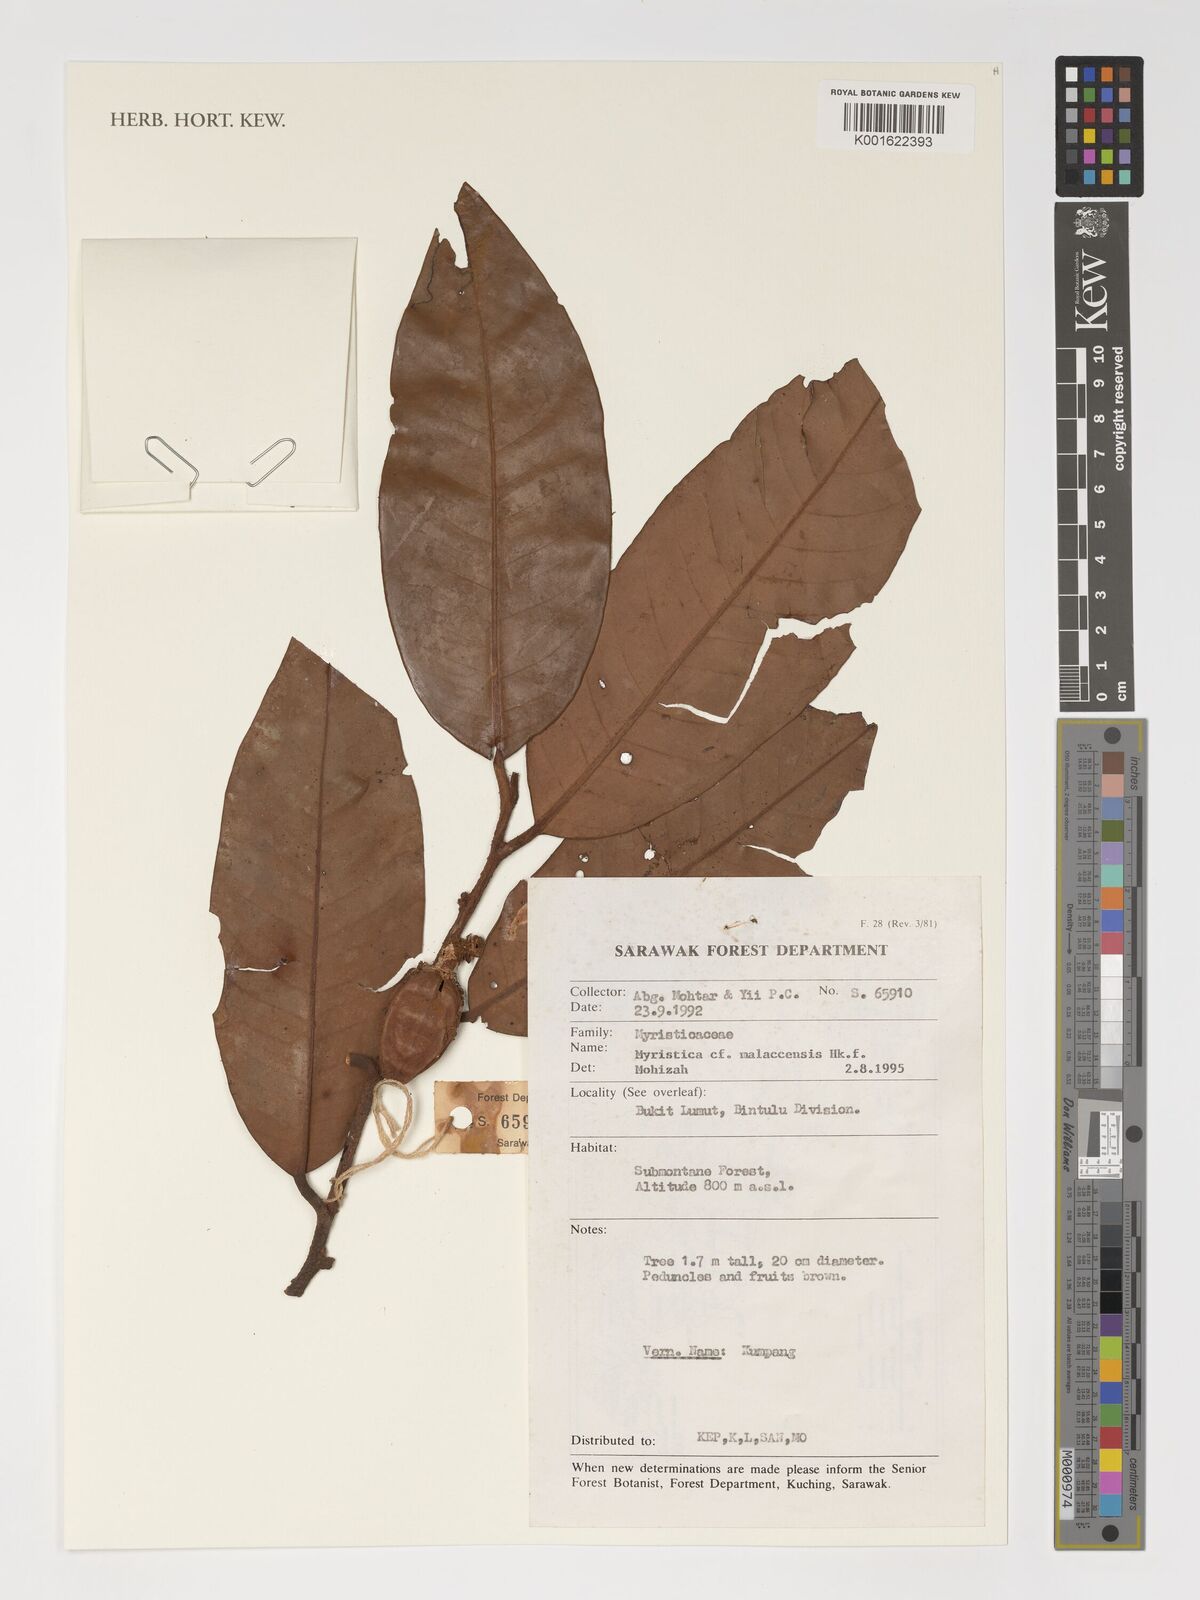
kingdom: Plantae
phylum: Tracheophyta
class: Magnoliopsida
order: Magnoliales
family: Myristicaceae
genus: Myristica
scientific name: Myristica malaccensis
